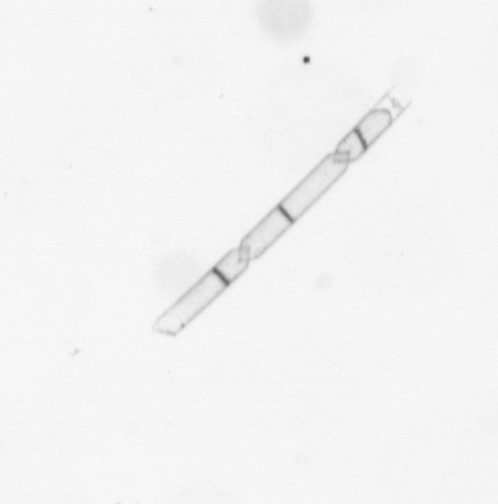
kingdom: Chromista
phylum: Ochrophyta
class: Bacillariophyceae
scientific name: Bacillariophyceae
